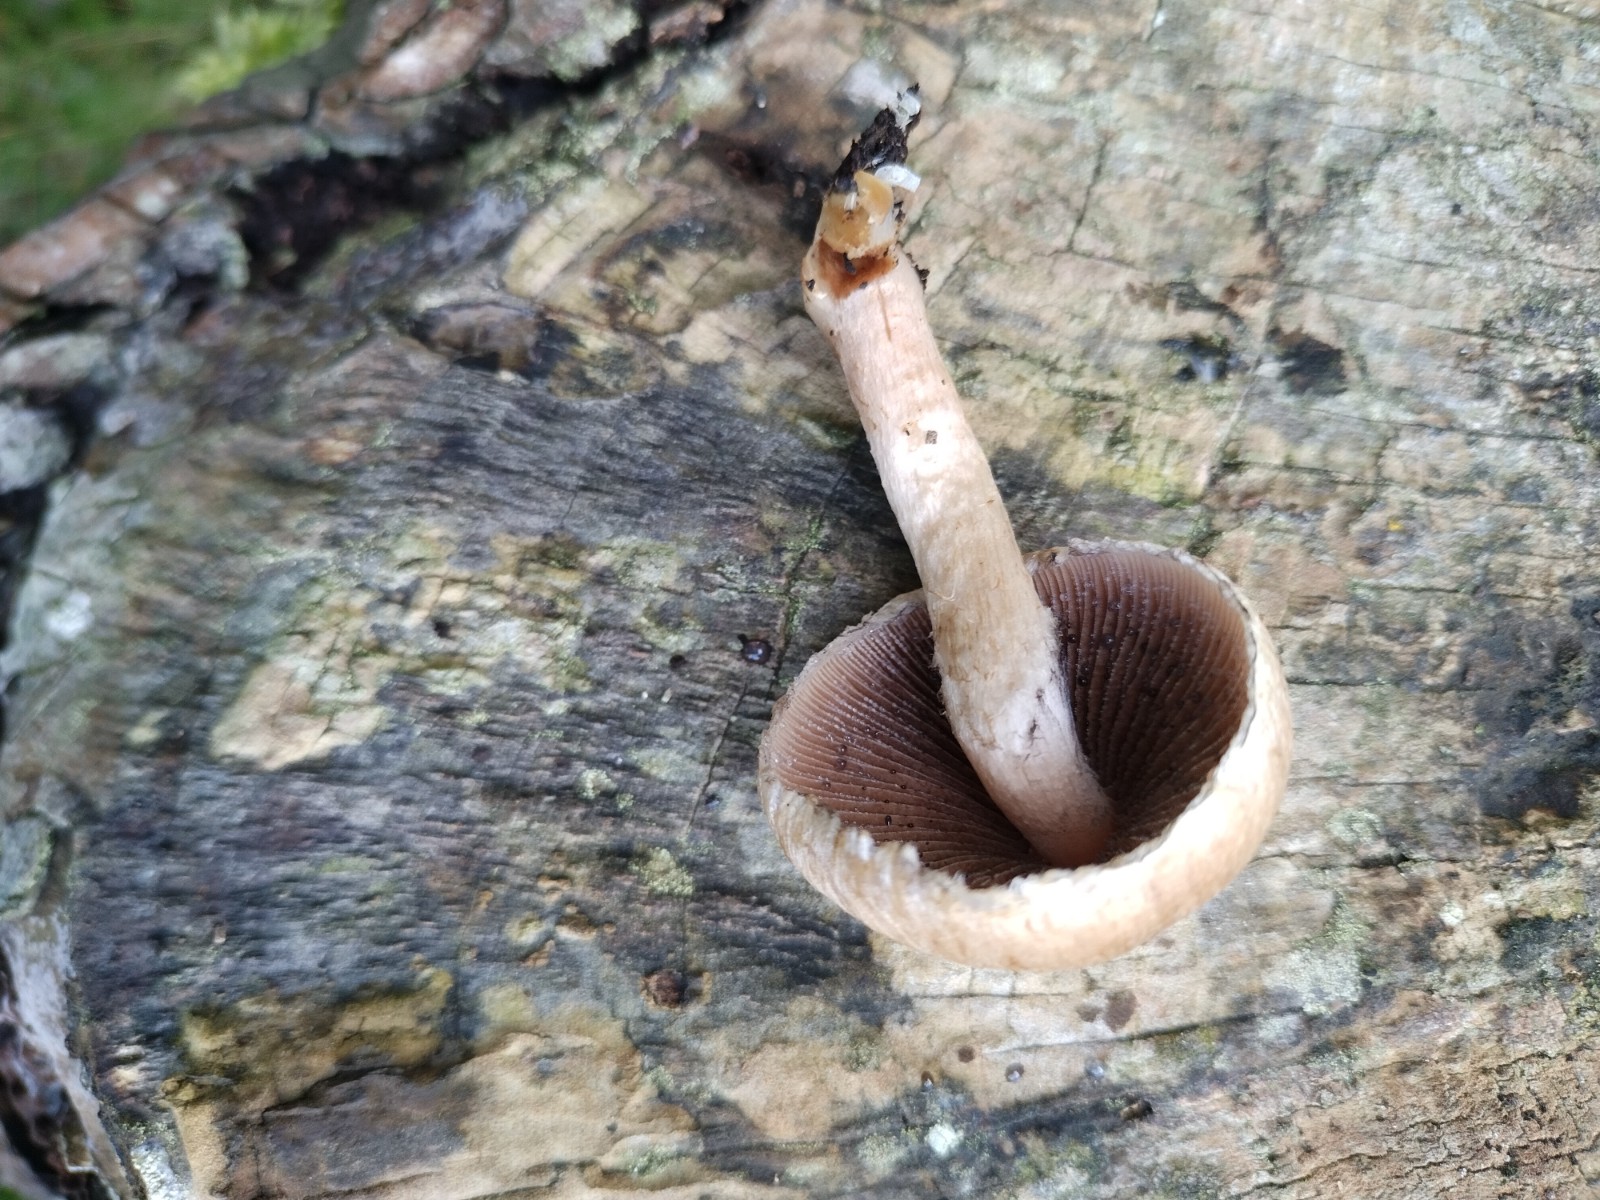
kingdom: Fungi
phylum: Basidiomycota
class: Agaricomycetes
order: Agaricales
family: Psathyrellaceae
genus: Lacrymaria
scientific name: Lacrymaria lacrymabunda
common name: grædende mørkhat
